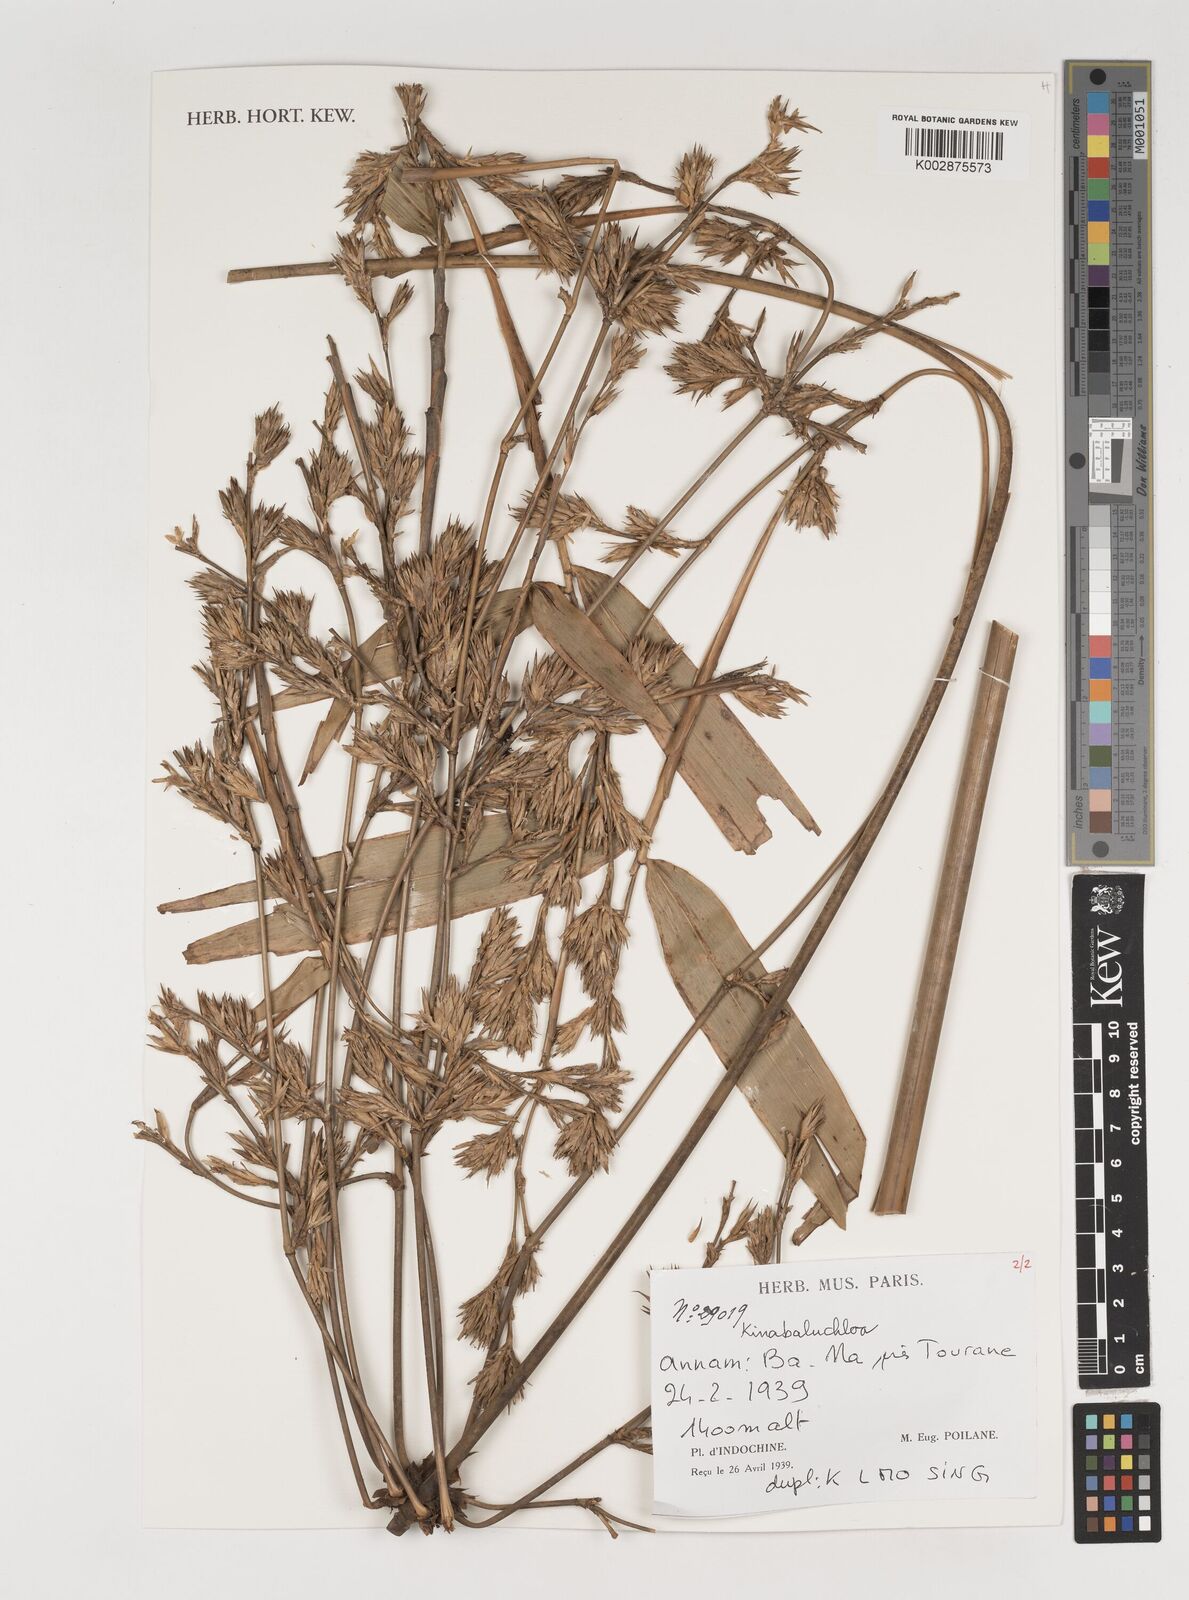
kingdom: Plantae
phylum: Tracheophyta
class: Liliopsida
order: Poales
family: Poaceae
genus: Kinabaluchloa
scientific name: Kinabaluchloa
